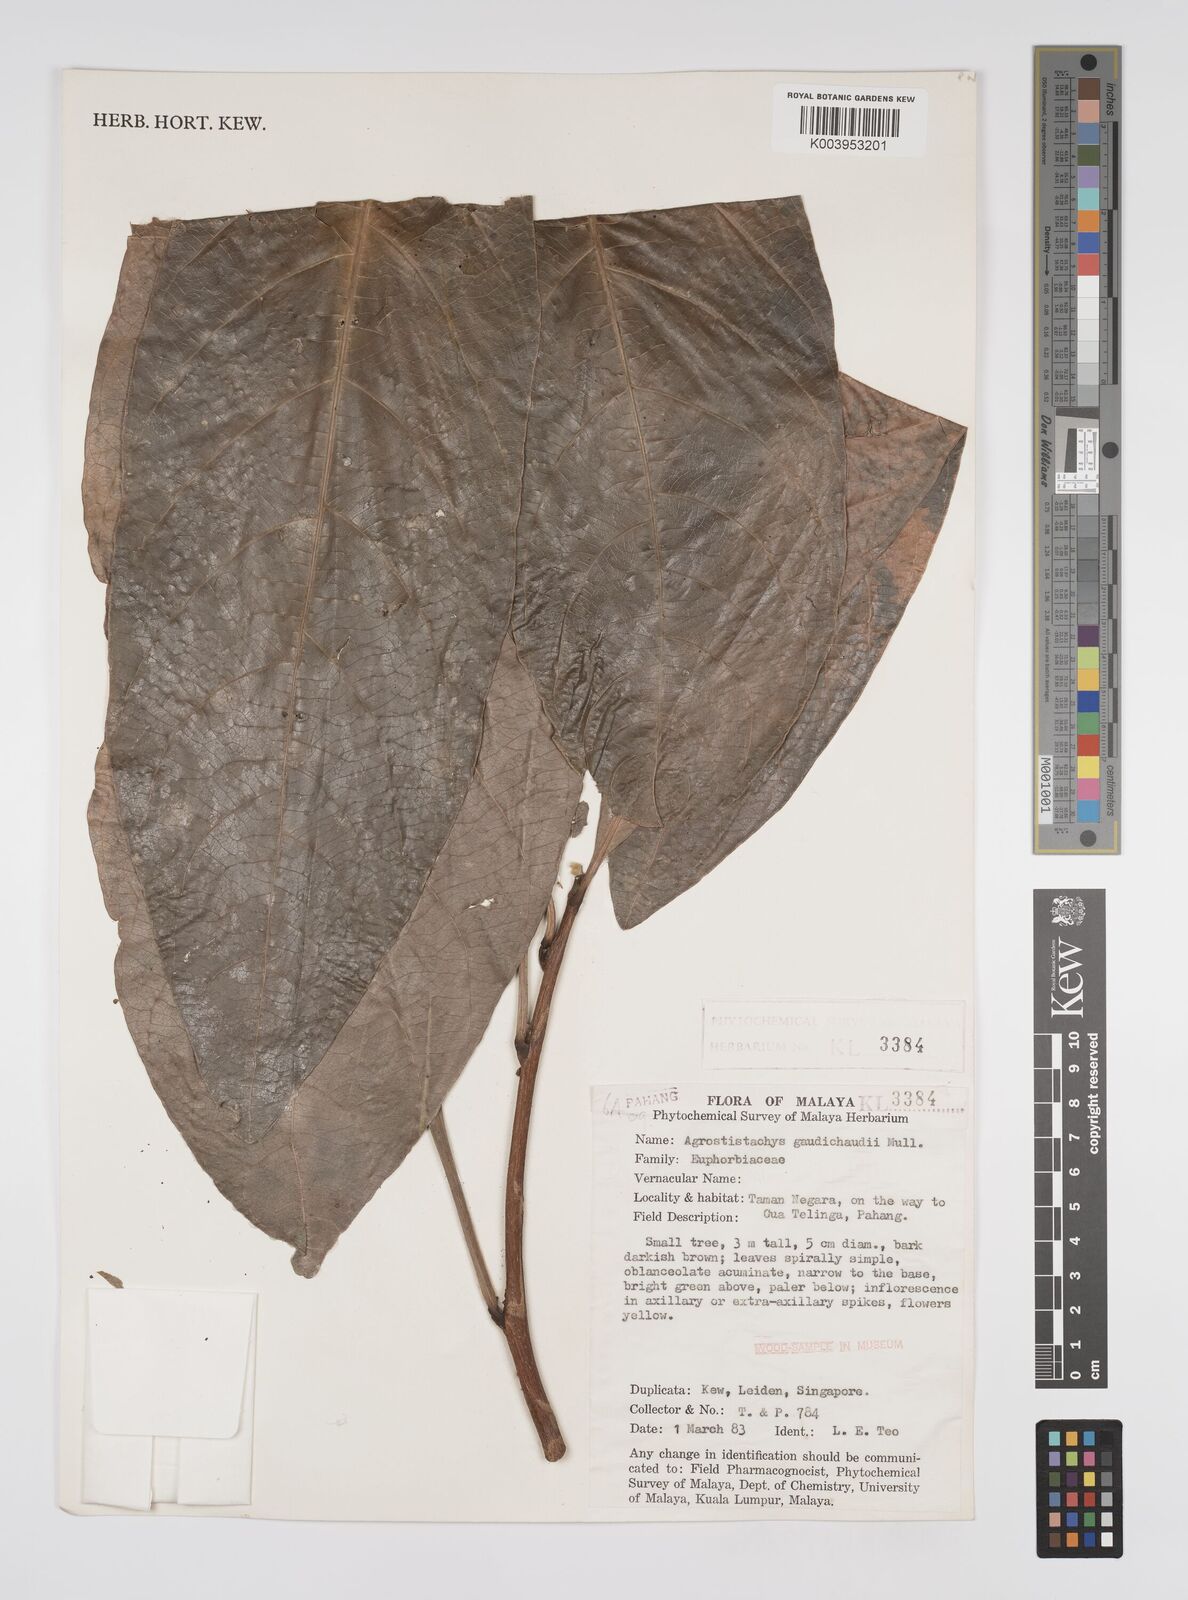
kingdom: Plantae
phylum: Tracheophyta
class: Magnoliopsida
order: Malpighiales
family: Euphorbiaceae
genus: Agrostistachys
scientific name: Agrostistachys gaudichaudii
